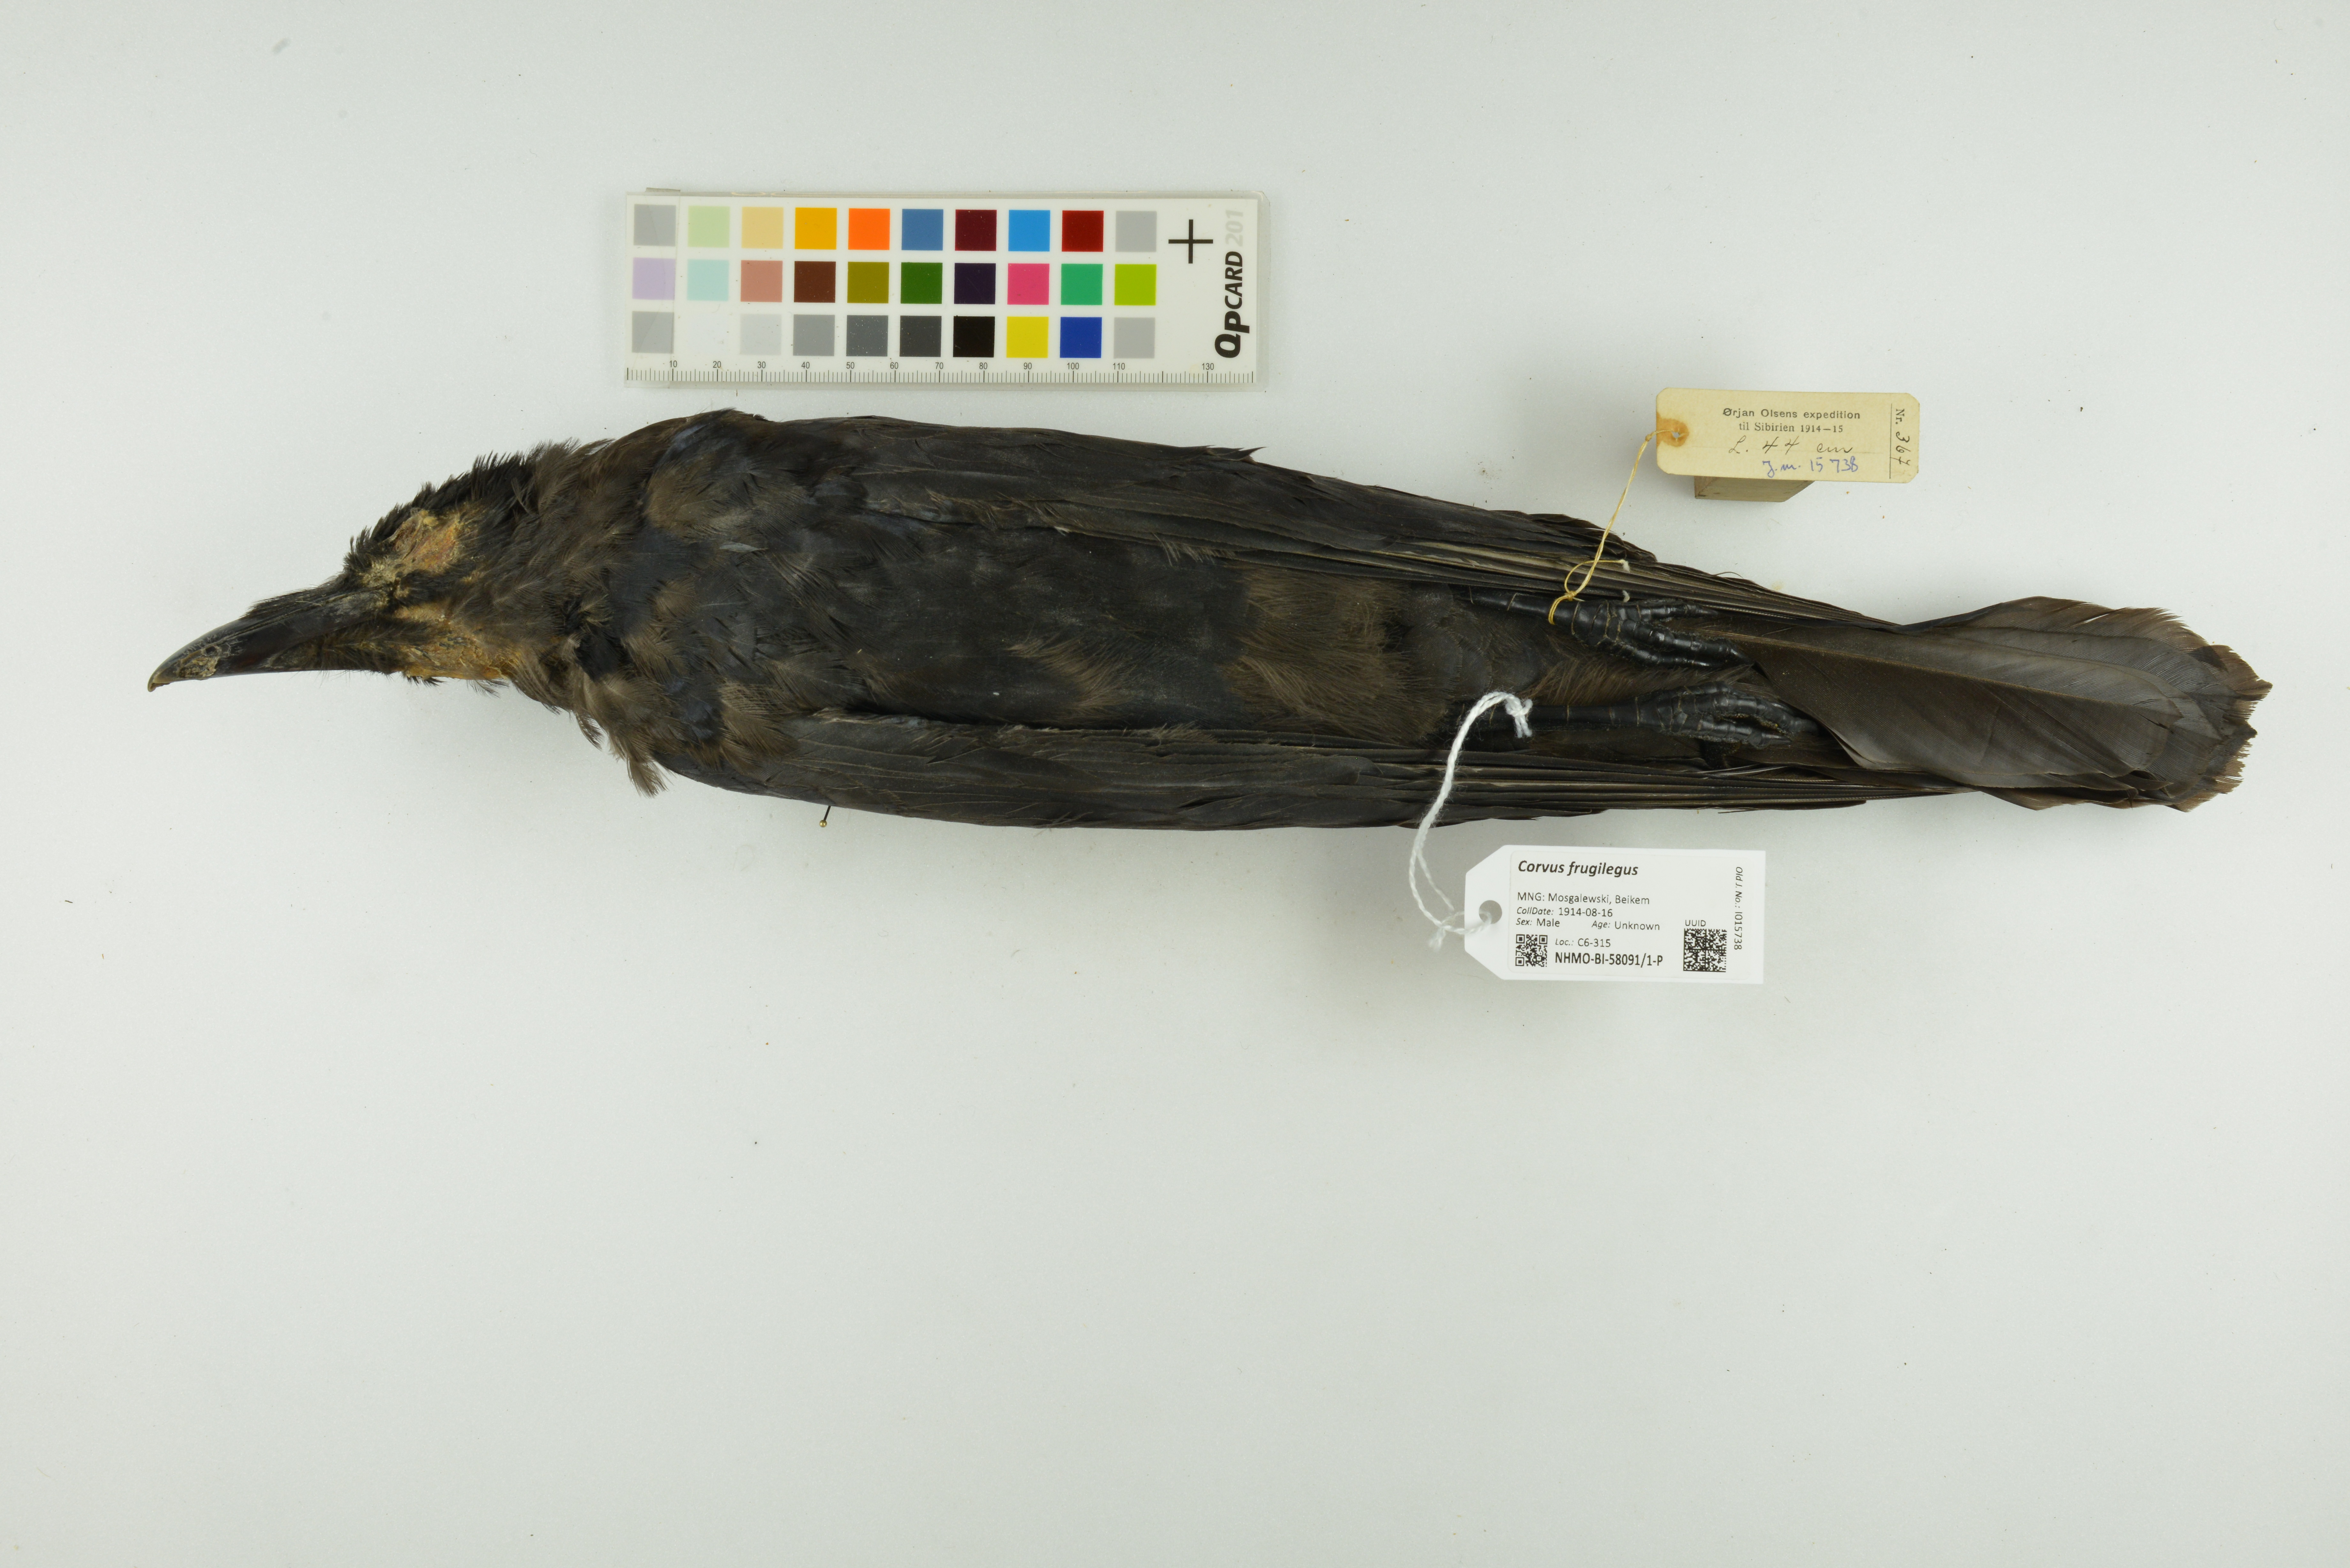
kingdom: Animalia
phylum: Chordata
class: Aves
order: Passeriformes
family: Corvidae
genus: Corvus
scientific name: Corvus frugilegus
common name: Rook
